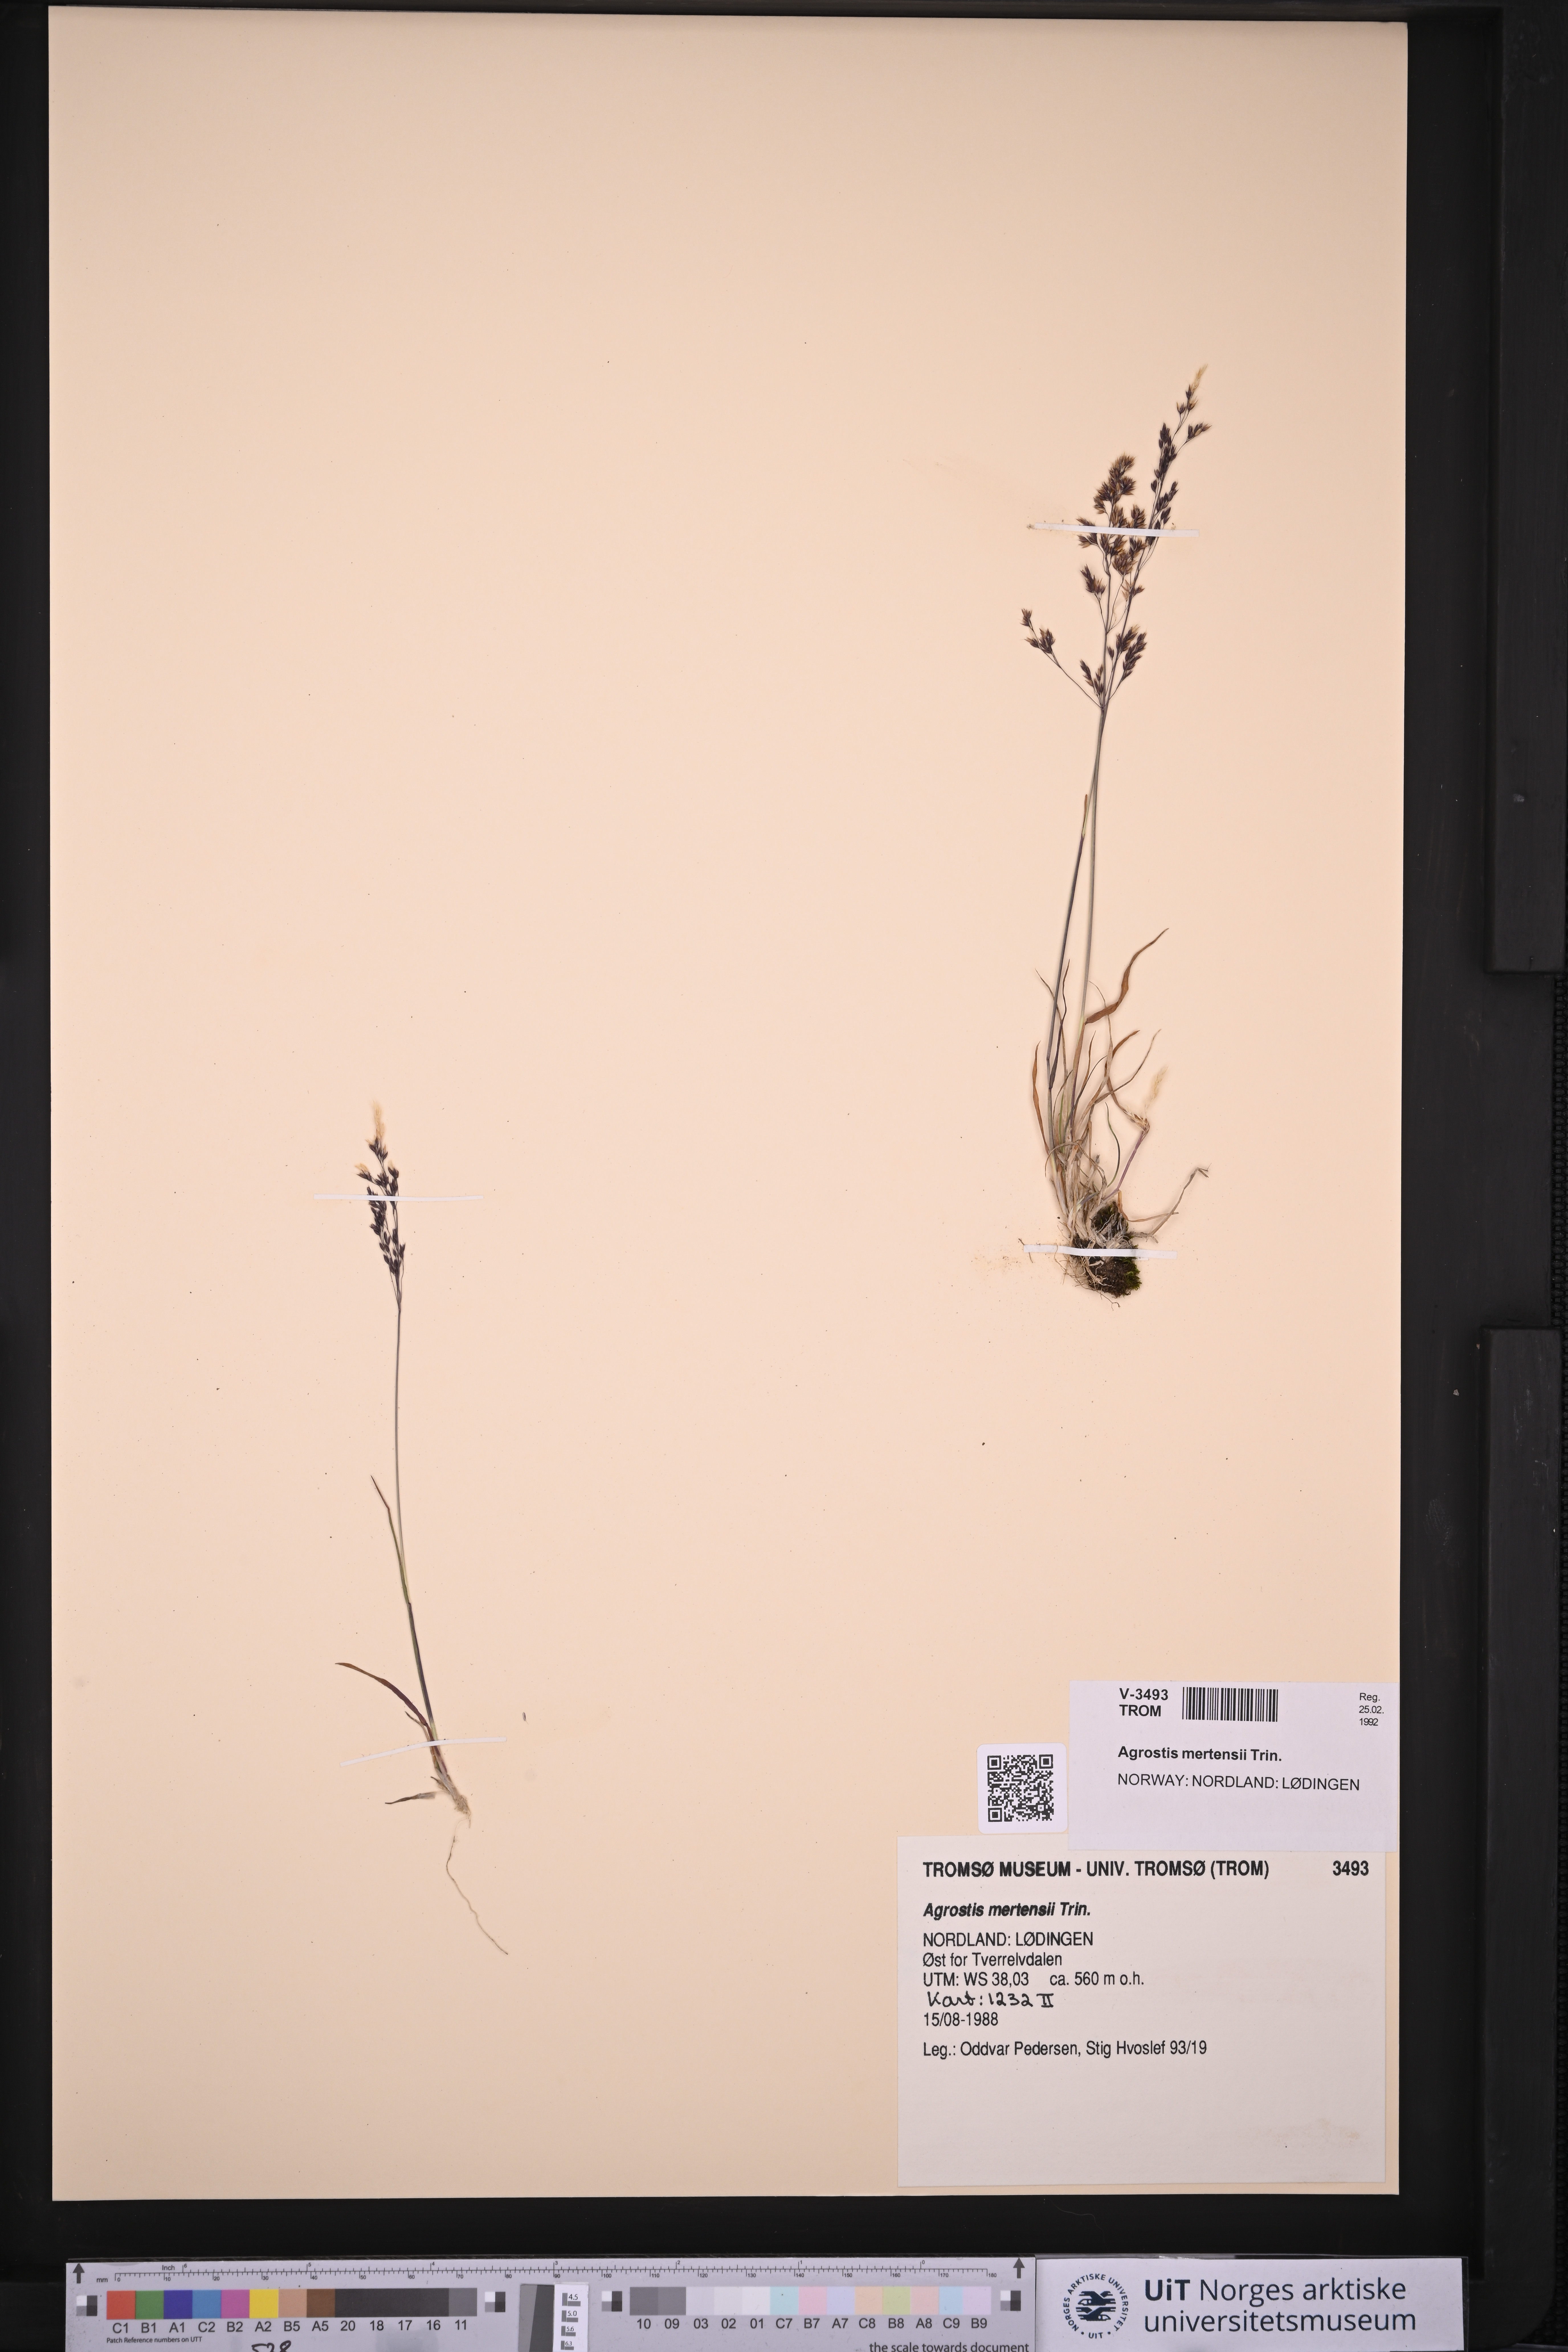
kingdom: Plantae
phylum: Tracheophyta
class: Liliopsida
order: Poales
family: Poaceae
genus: Agrostis
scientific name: Agrostis mertensii
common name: Northern bent
